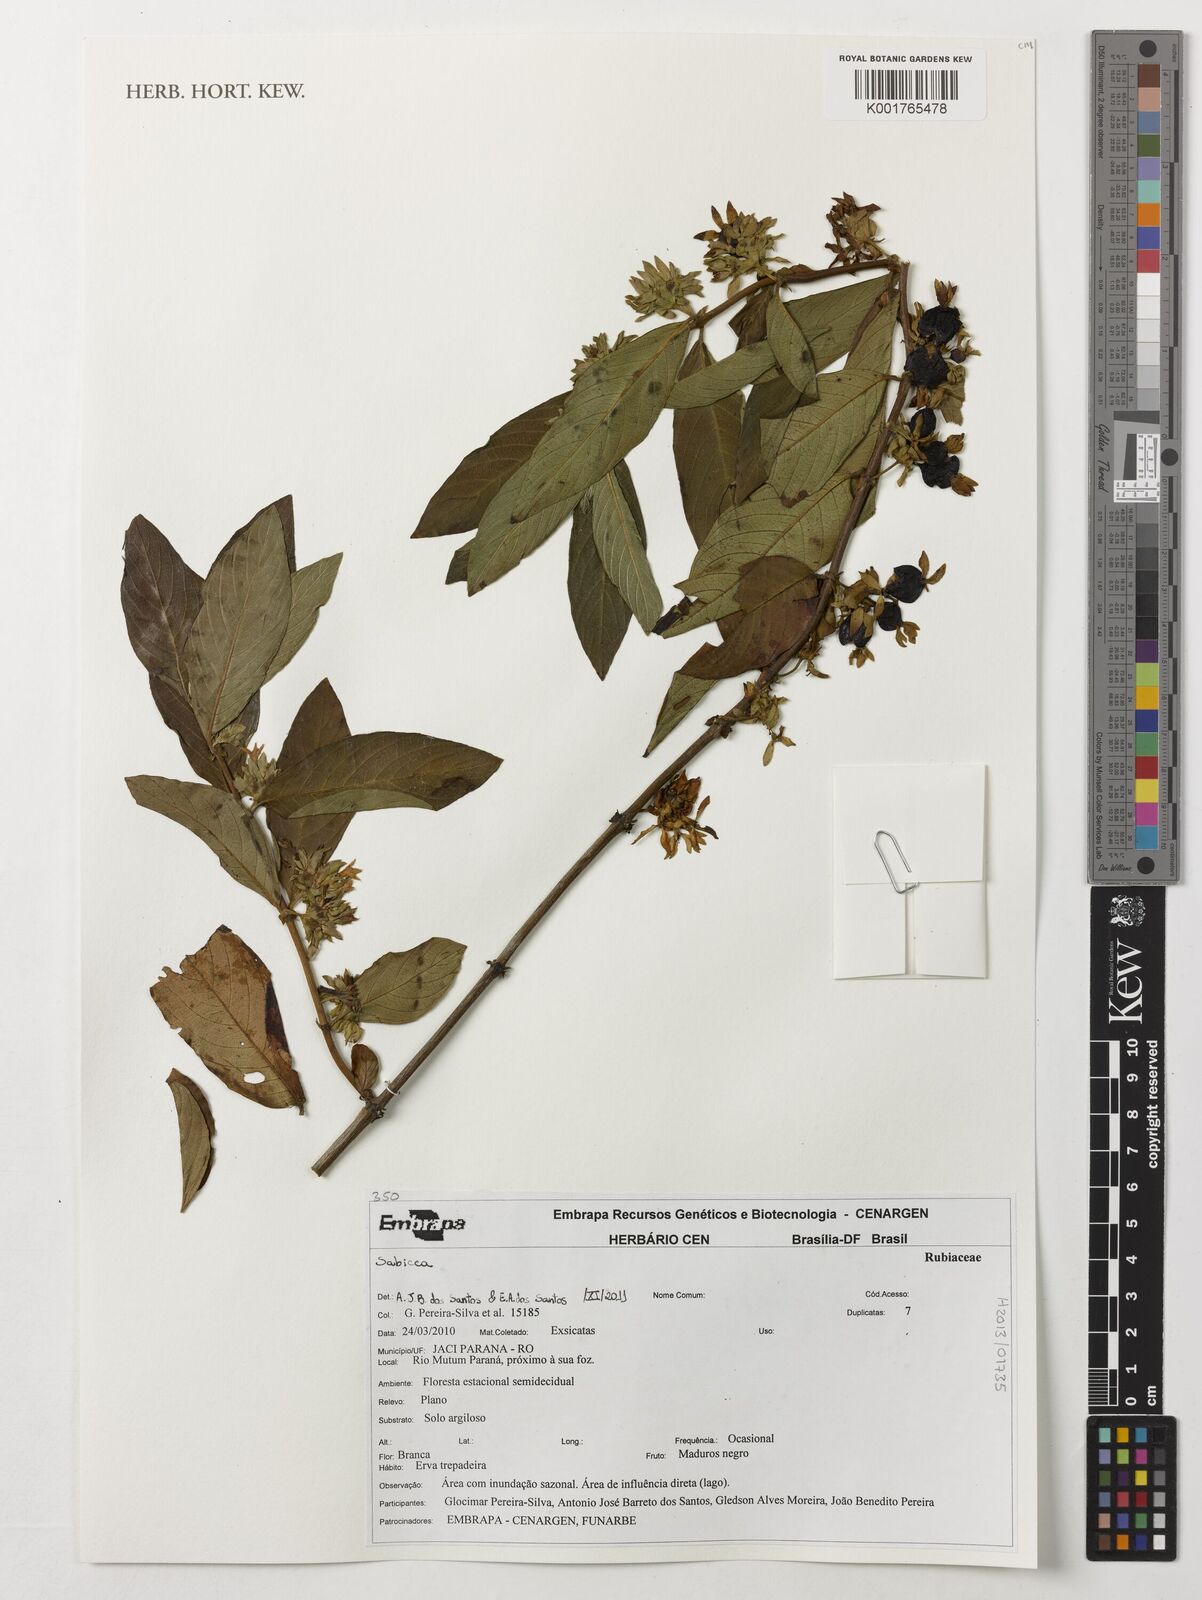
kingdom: Plantae
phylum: Tracheophyta
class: Magnoliopsida
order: Gentianales
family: Rubiaceae
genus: Sabicea
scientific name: Sabicea
